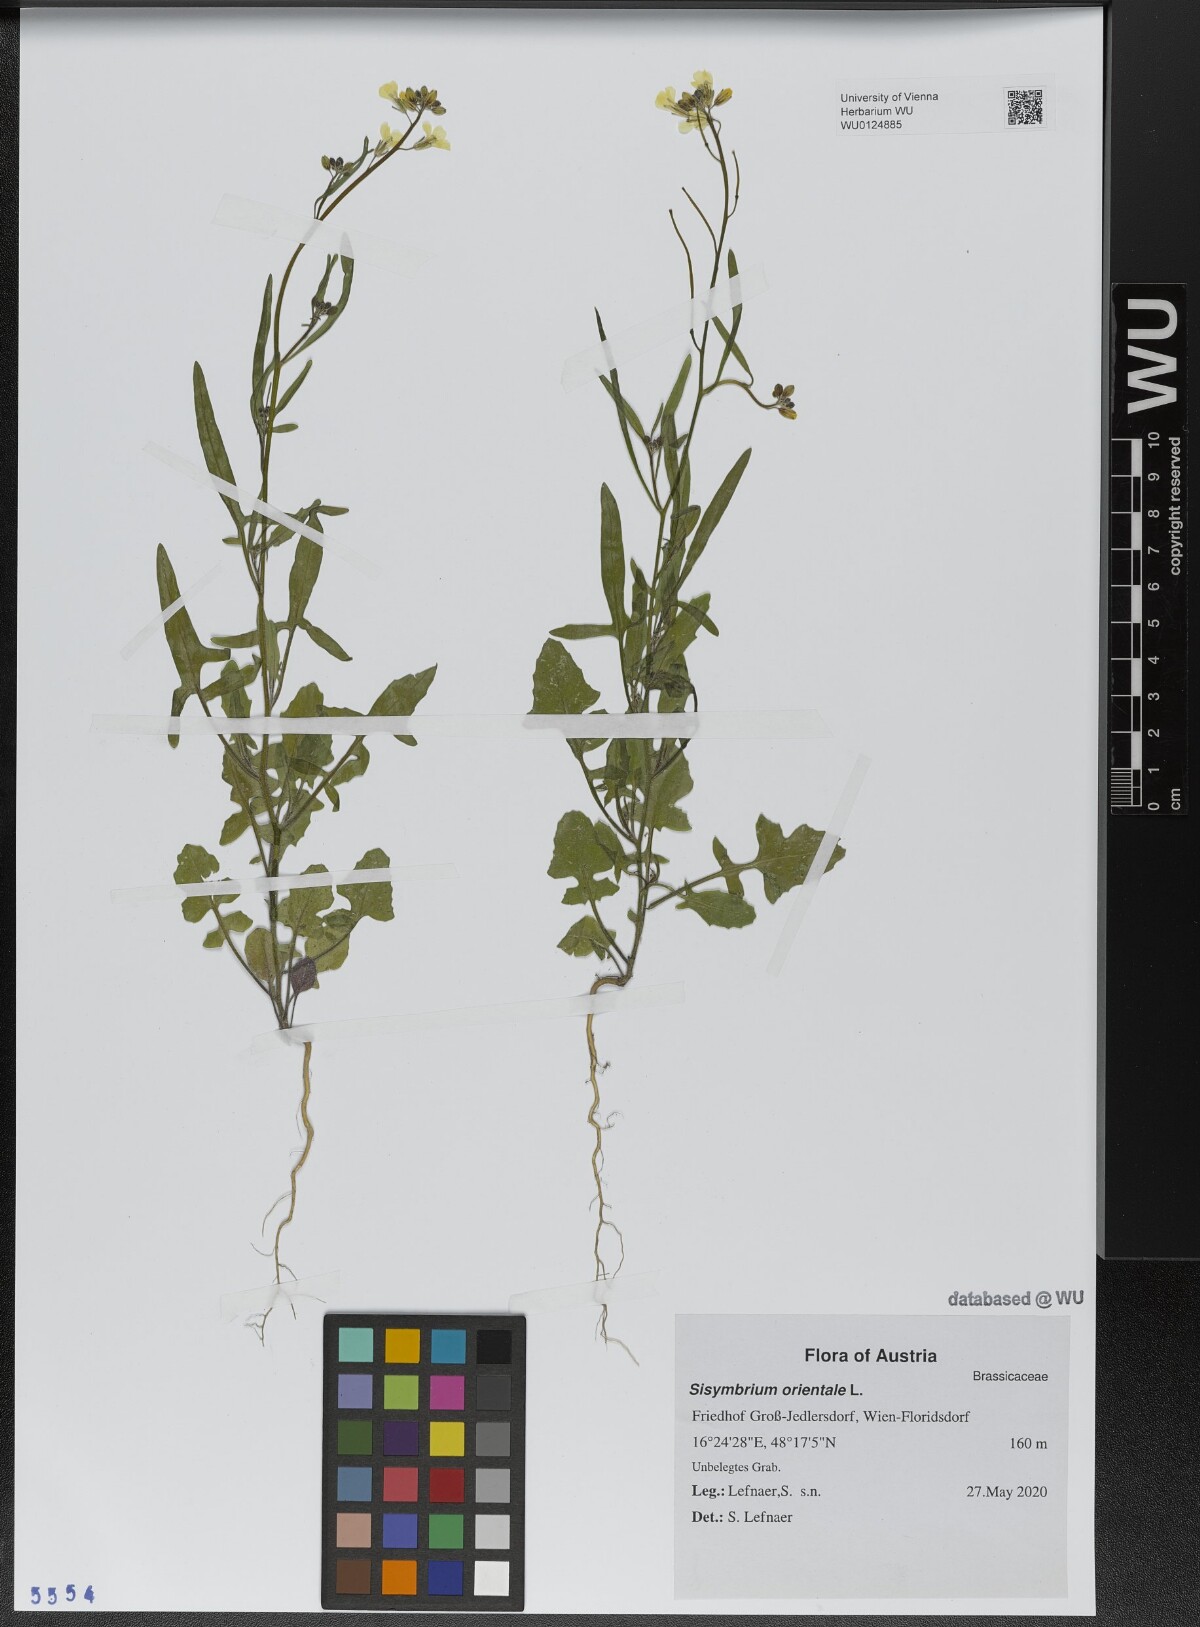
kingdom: Plantae
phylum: Tracheophyta
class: Magnoliopsida
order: Brassicales
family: Brassicaceae
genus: Sisymbrium
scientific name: Sisymbrium orientale
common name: Eastern rocket
